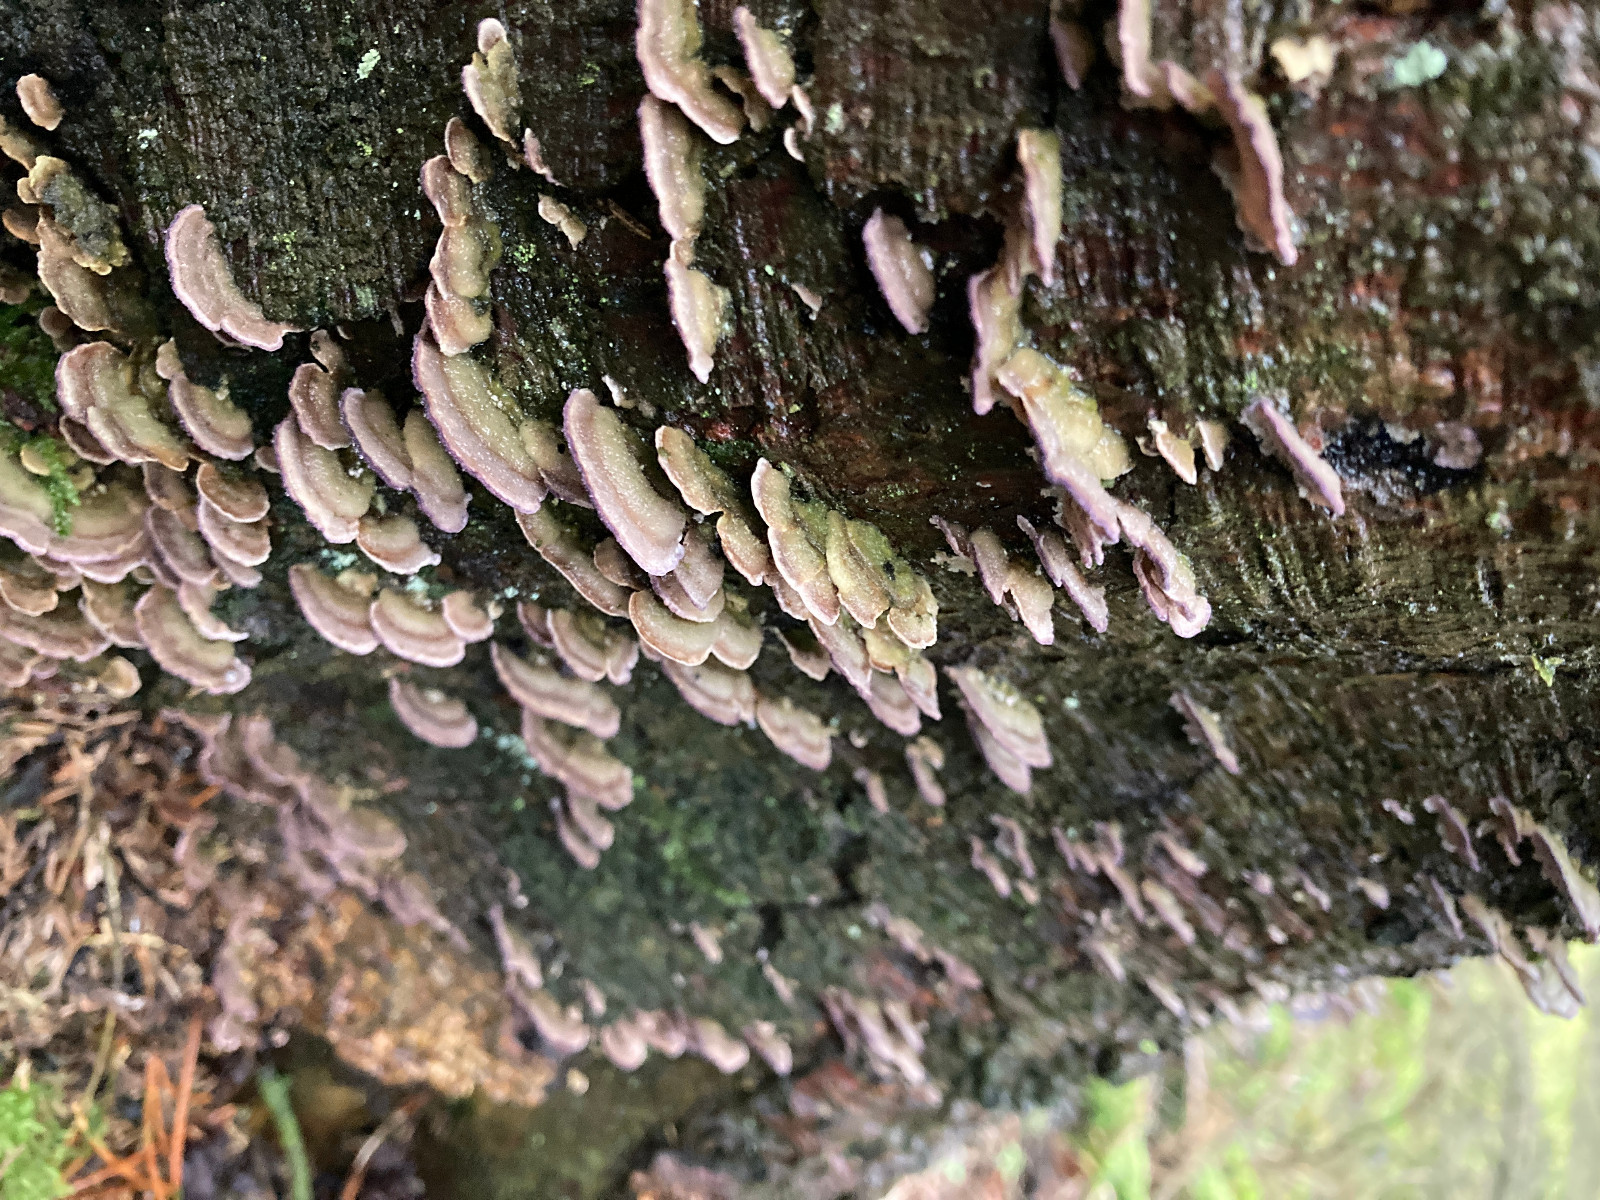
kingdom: Fungi
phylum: Basidiomycota
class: Agaricomycetes
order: Hymenochaetales
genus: Trichaptum
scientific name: Trichaptum abietinum
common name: almindelig violporesvamp
